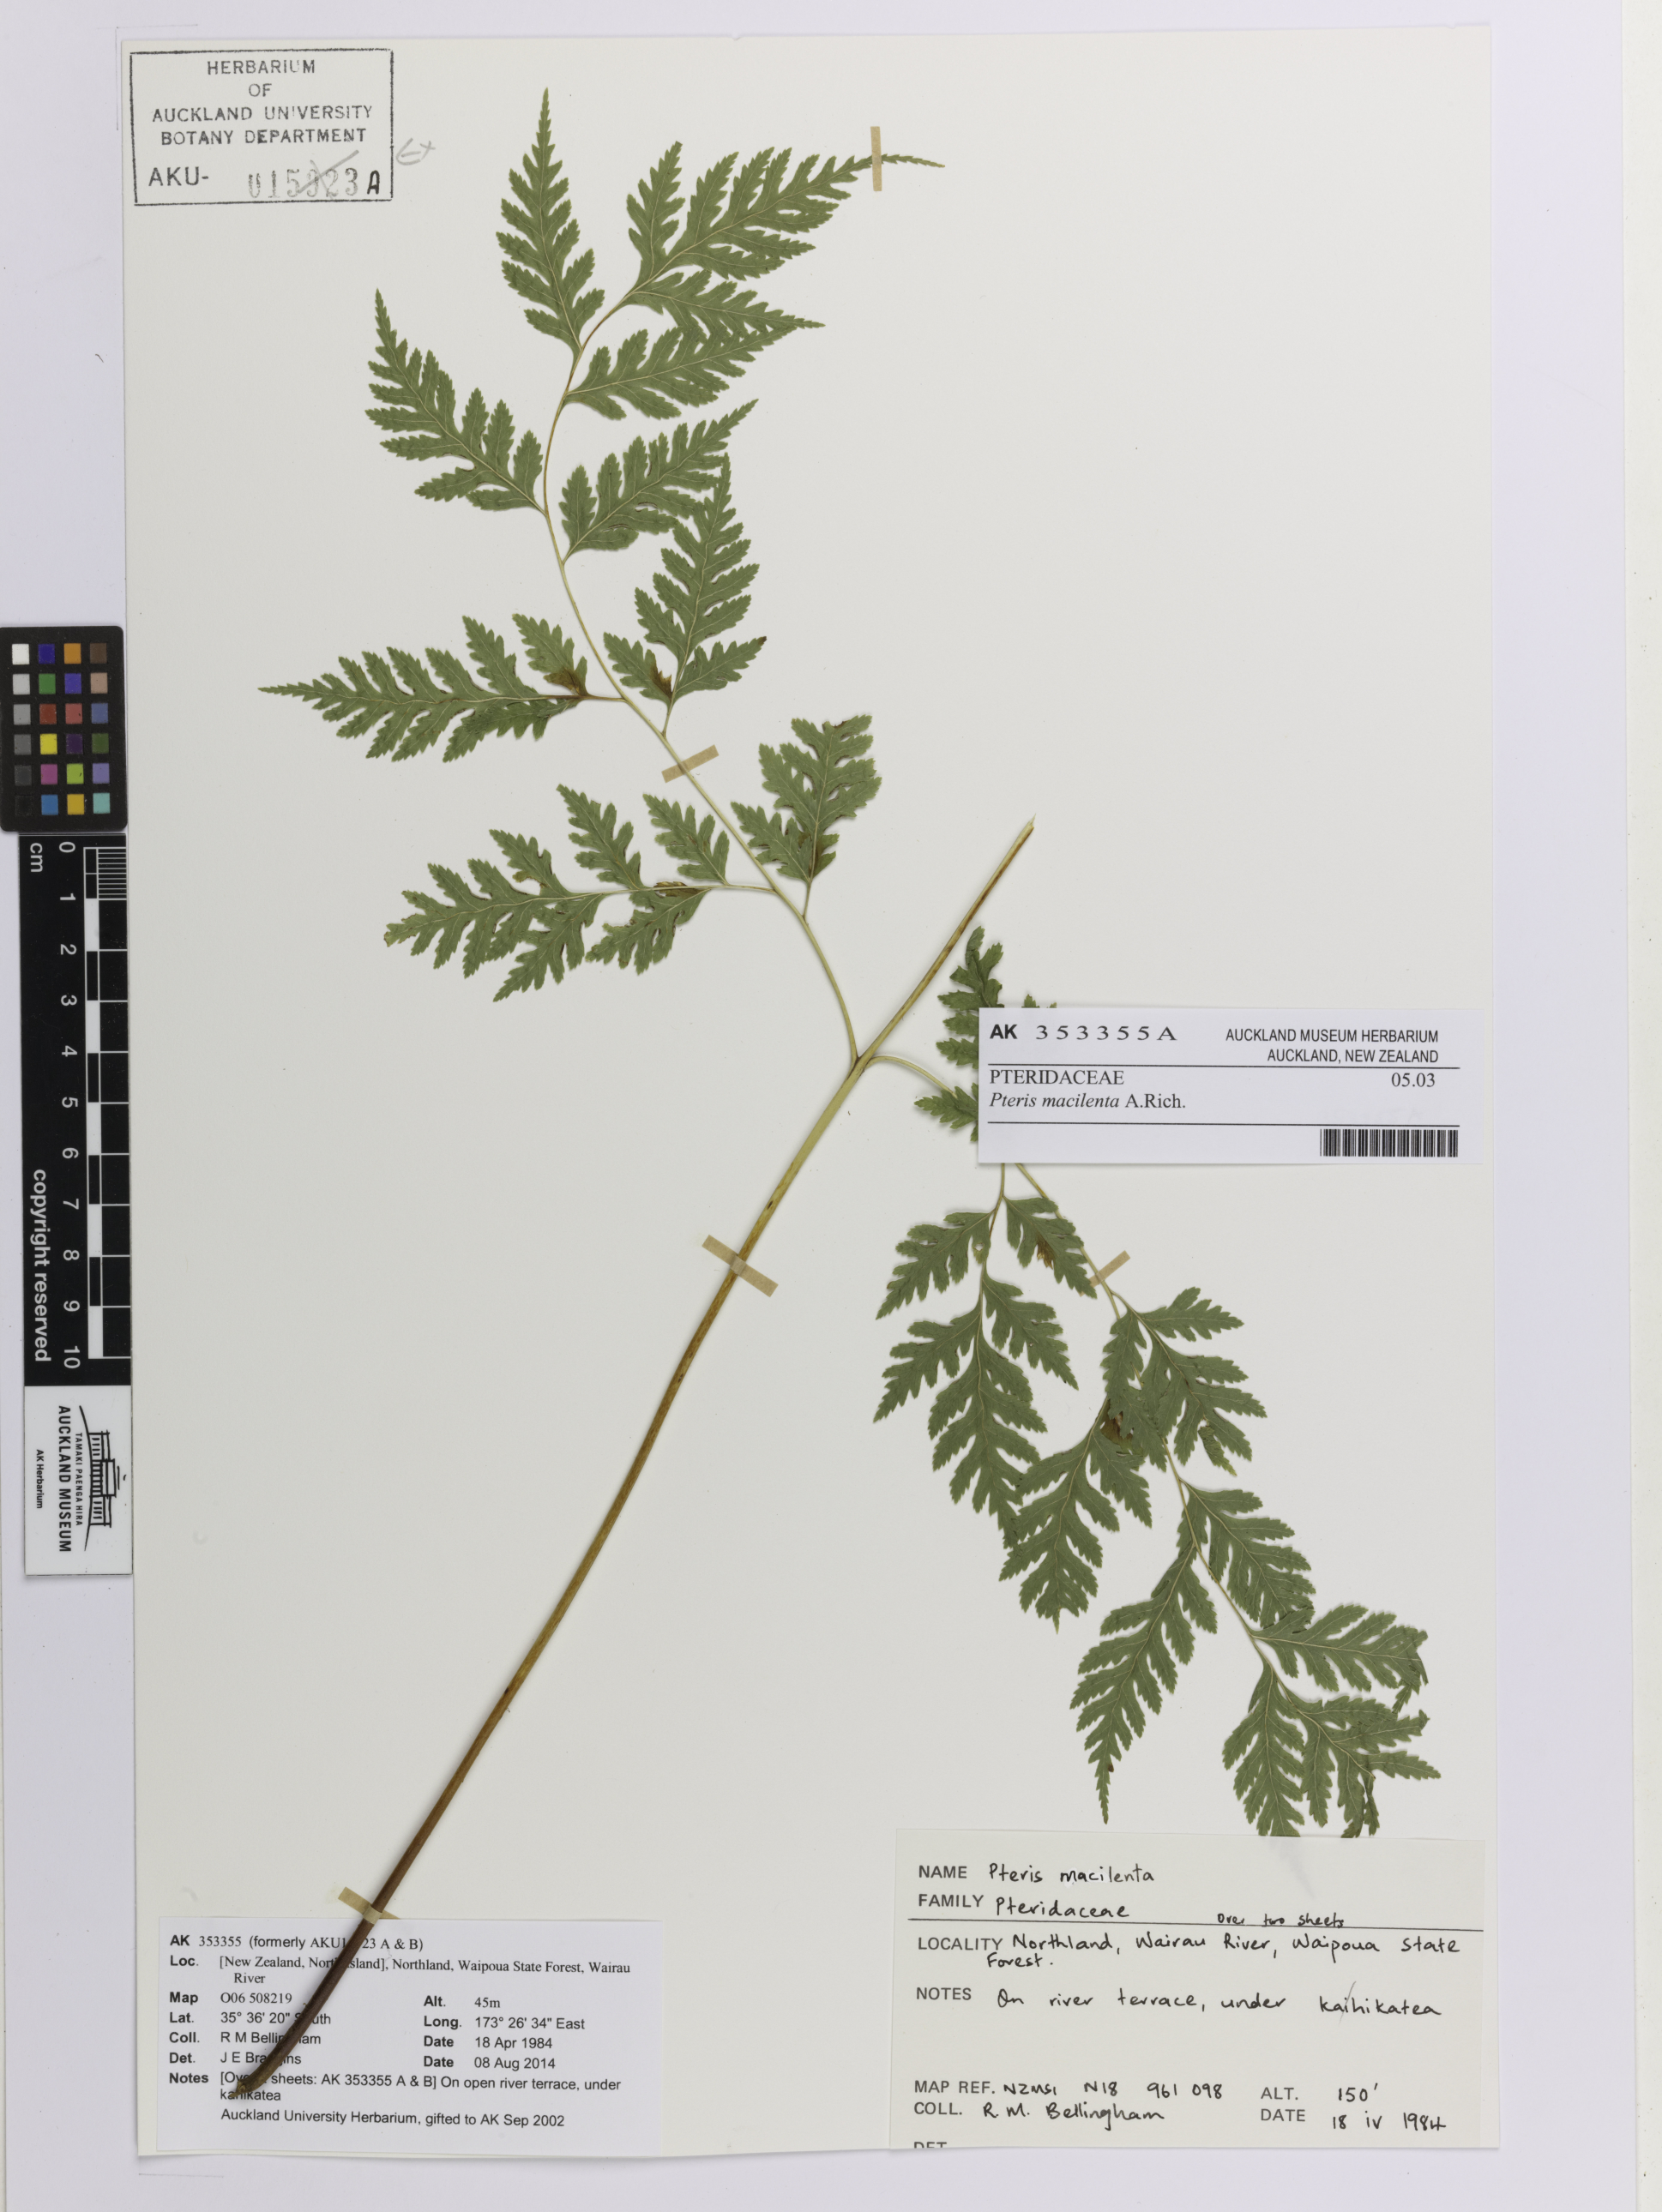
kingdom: Plantae
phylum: Tracheophyta
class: Polypodiopsida
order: Polypodiales
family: Pteridaceae
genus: Pteris
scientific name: Pteris macilenta
